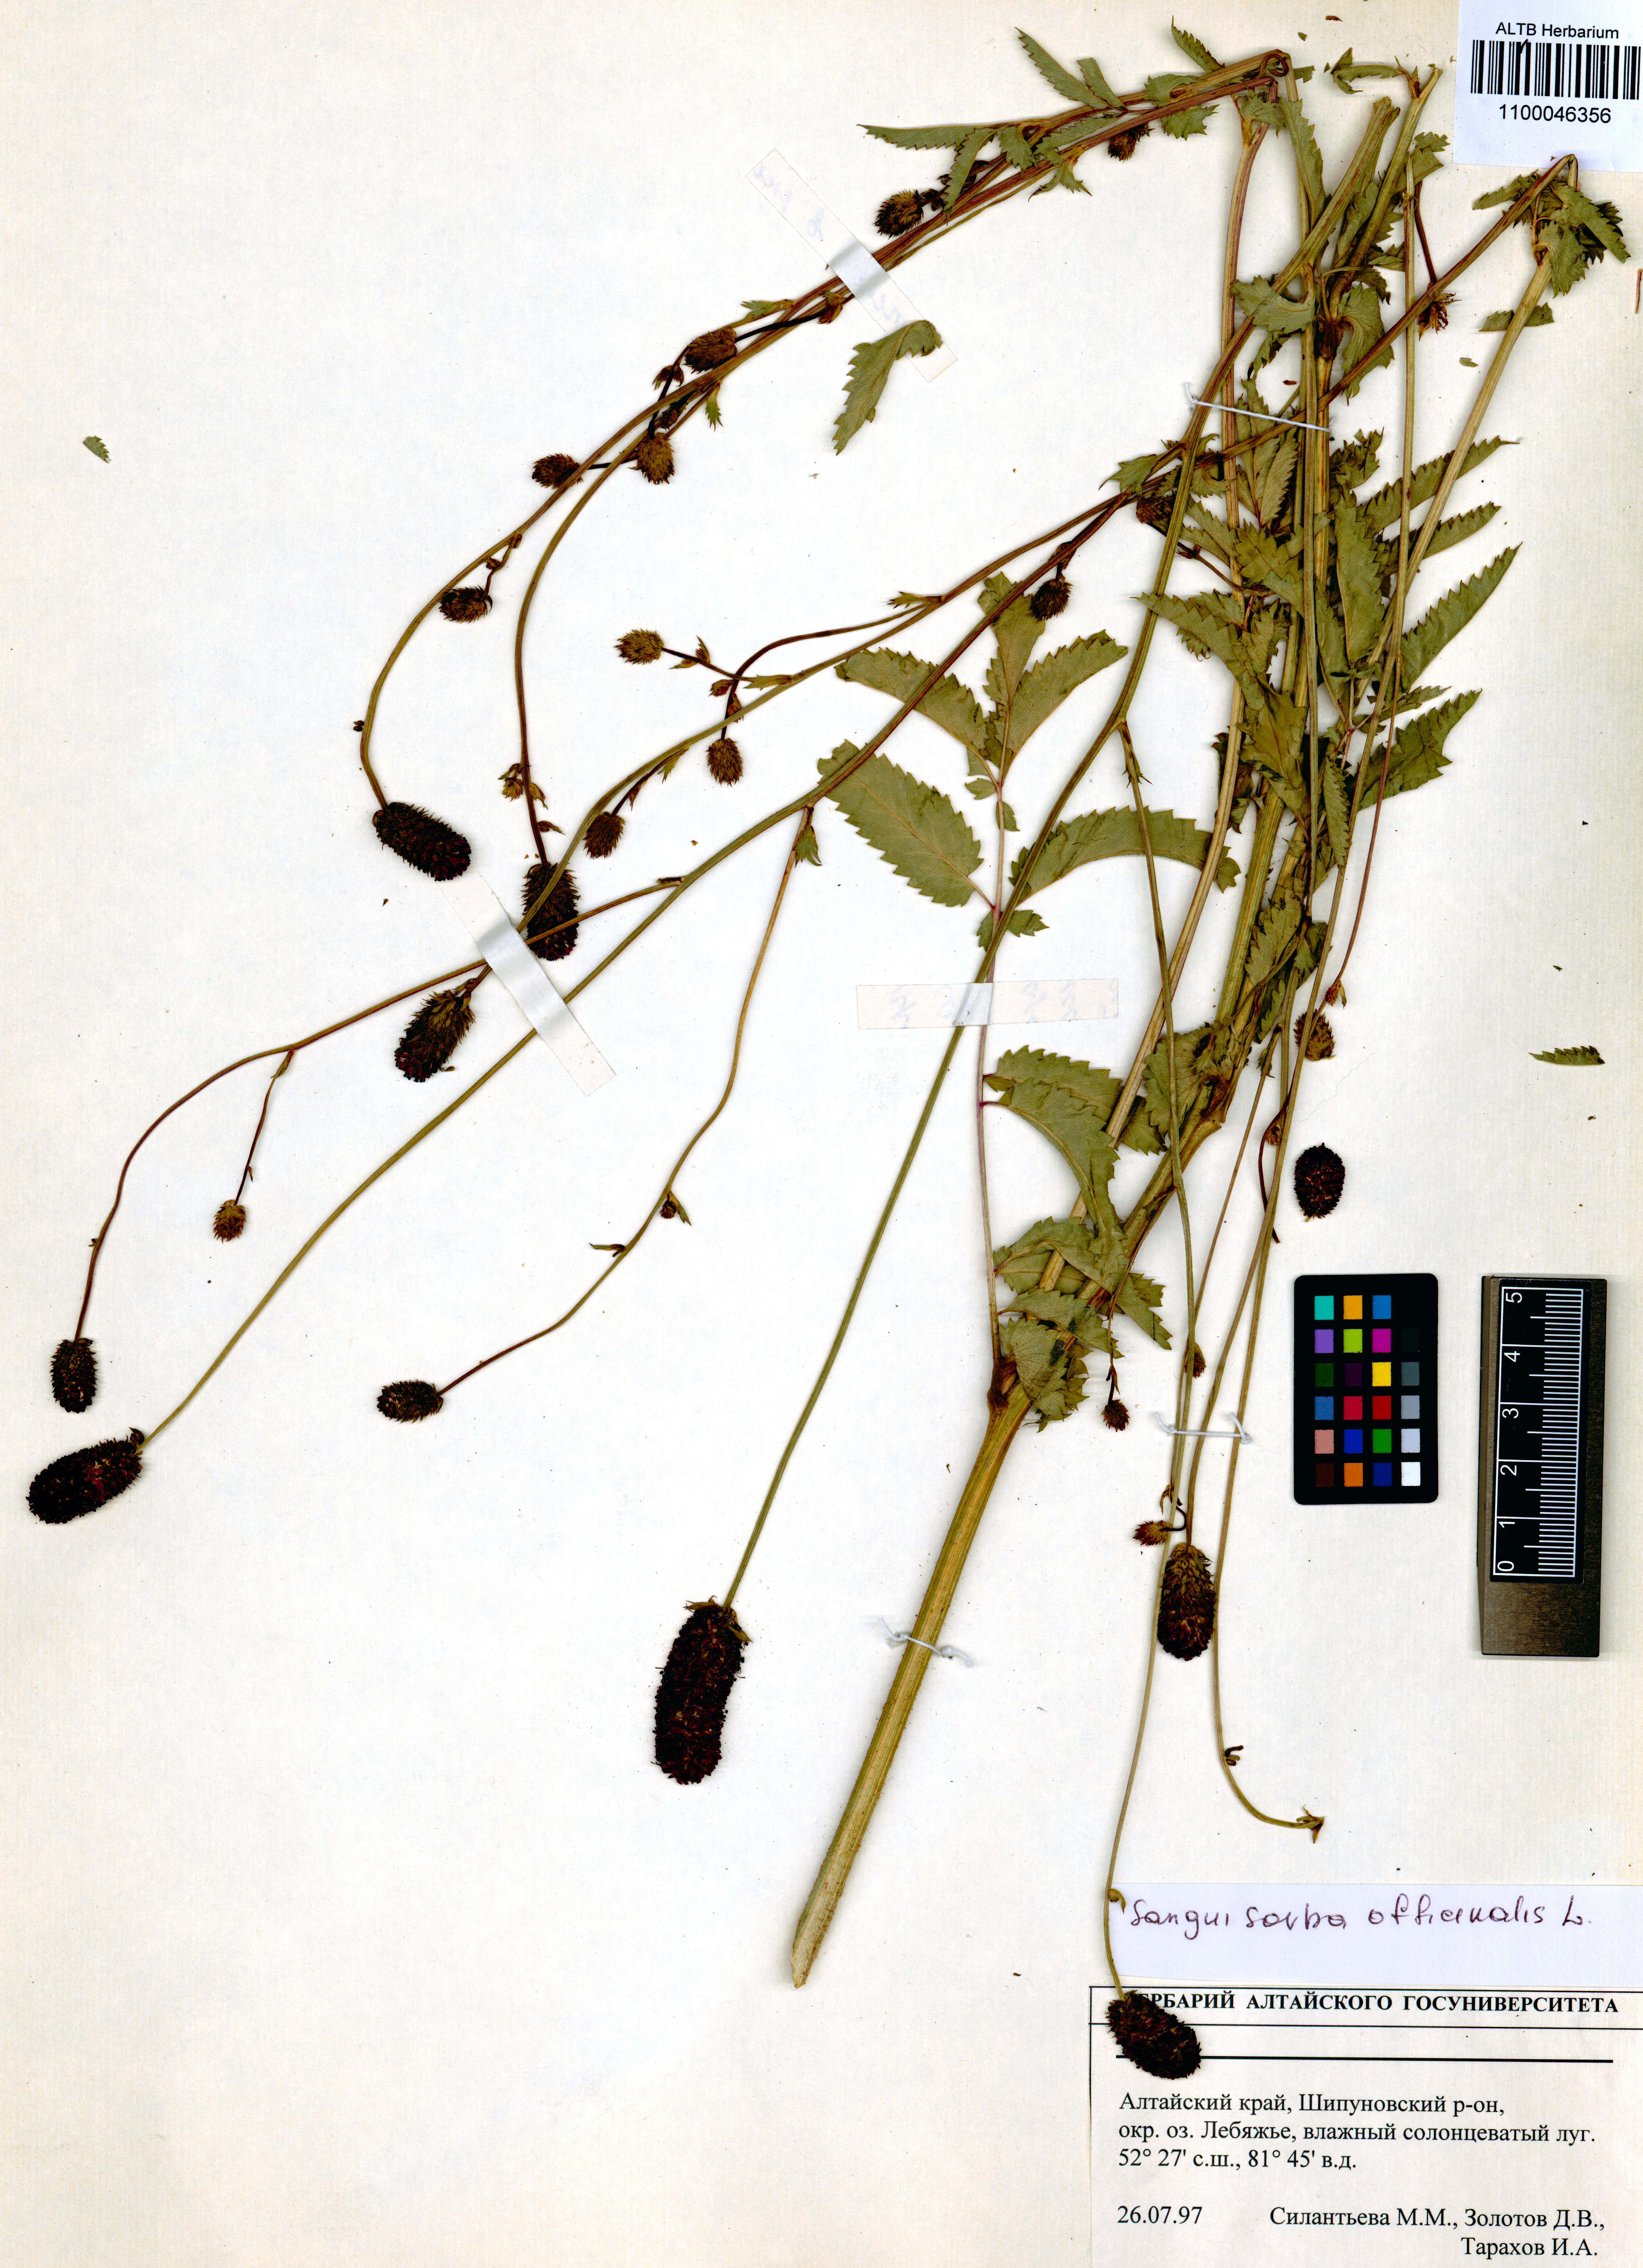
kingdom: Plantae
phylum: Tracheophyta
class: Magnoliopsida
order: Rosales
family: Rosaceae
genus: Sanguisorba
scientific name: Sanguisorba officinalis
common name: Great burnet
